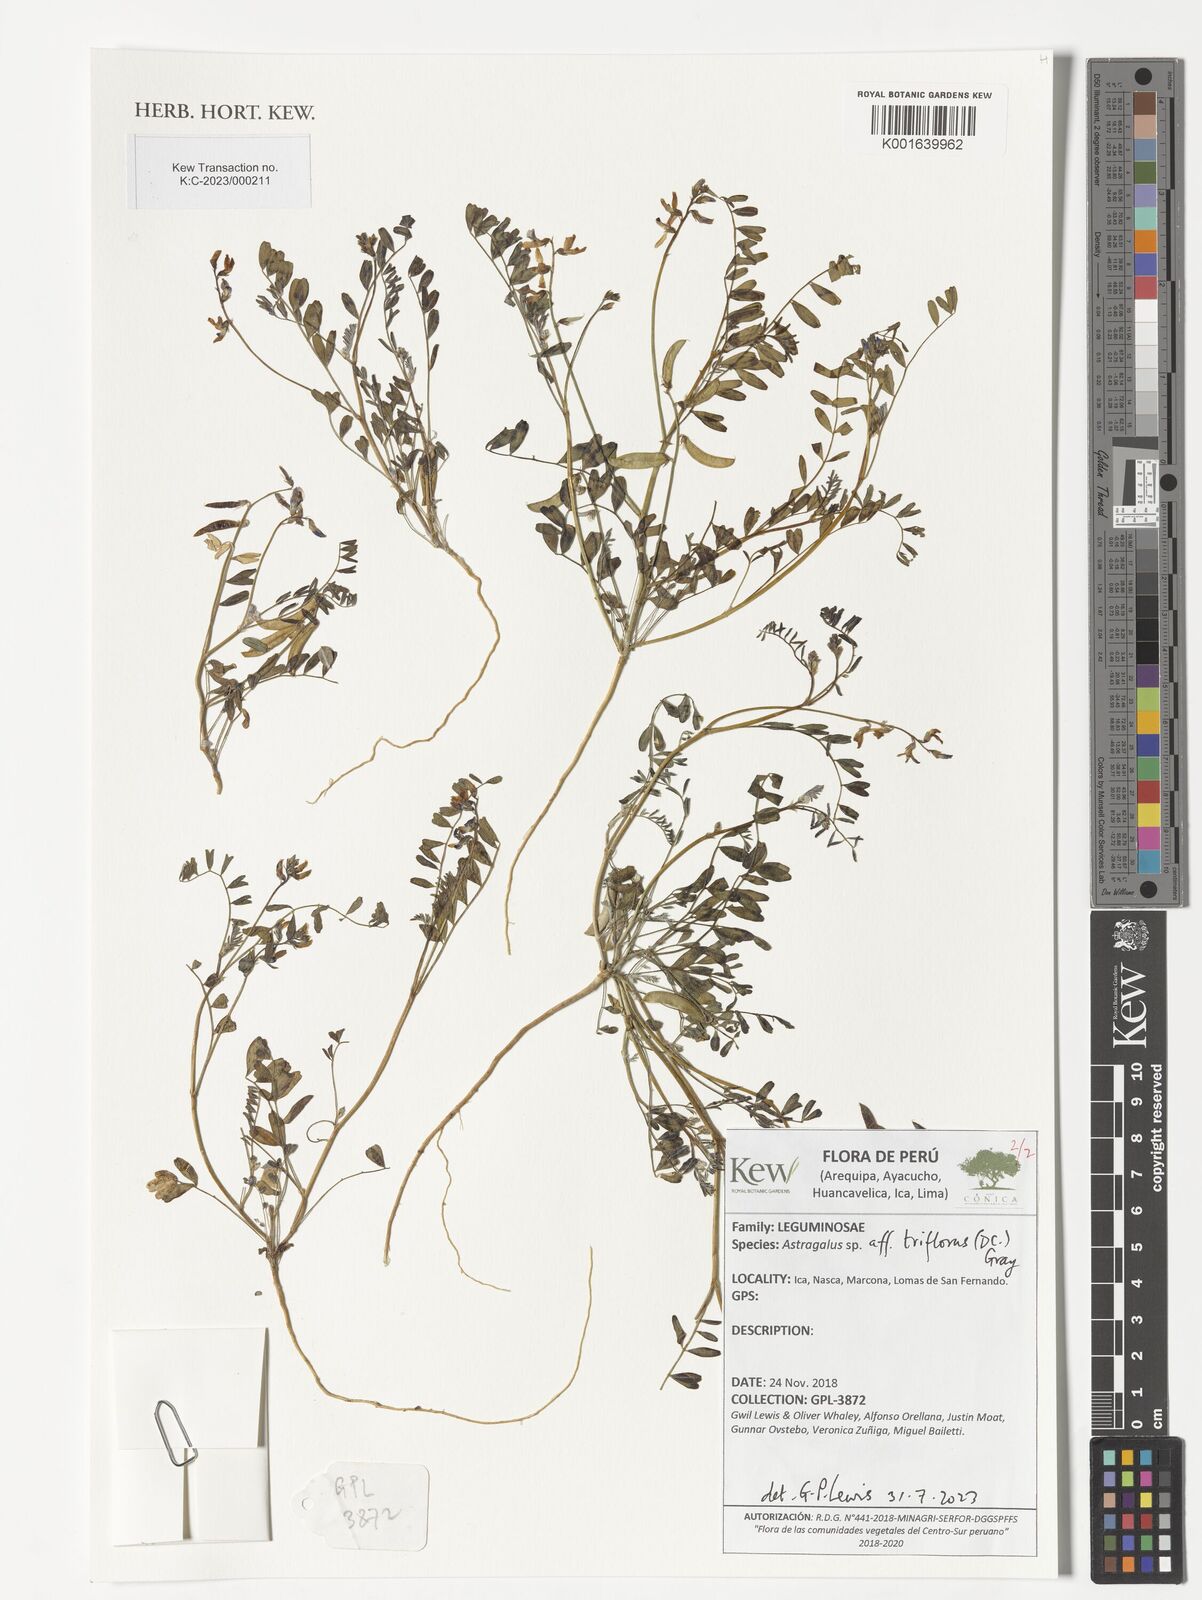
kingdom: Plantae
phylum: Tracheophyta
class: Magnoliopsida
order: Fabales
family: Fabaceae
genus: Astragalus
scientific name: Astragalus triflorus
